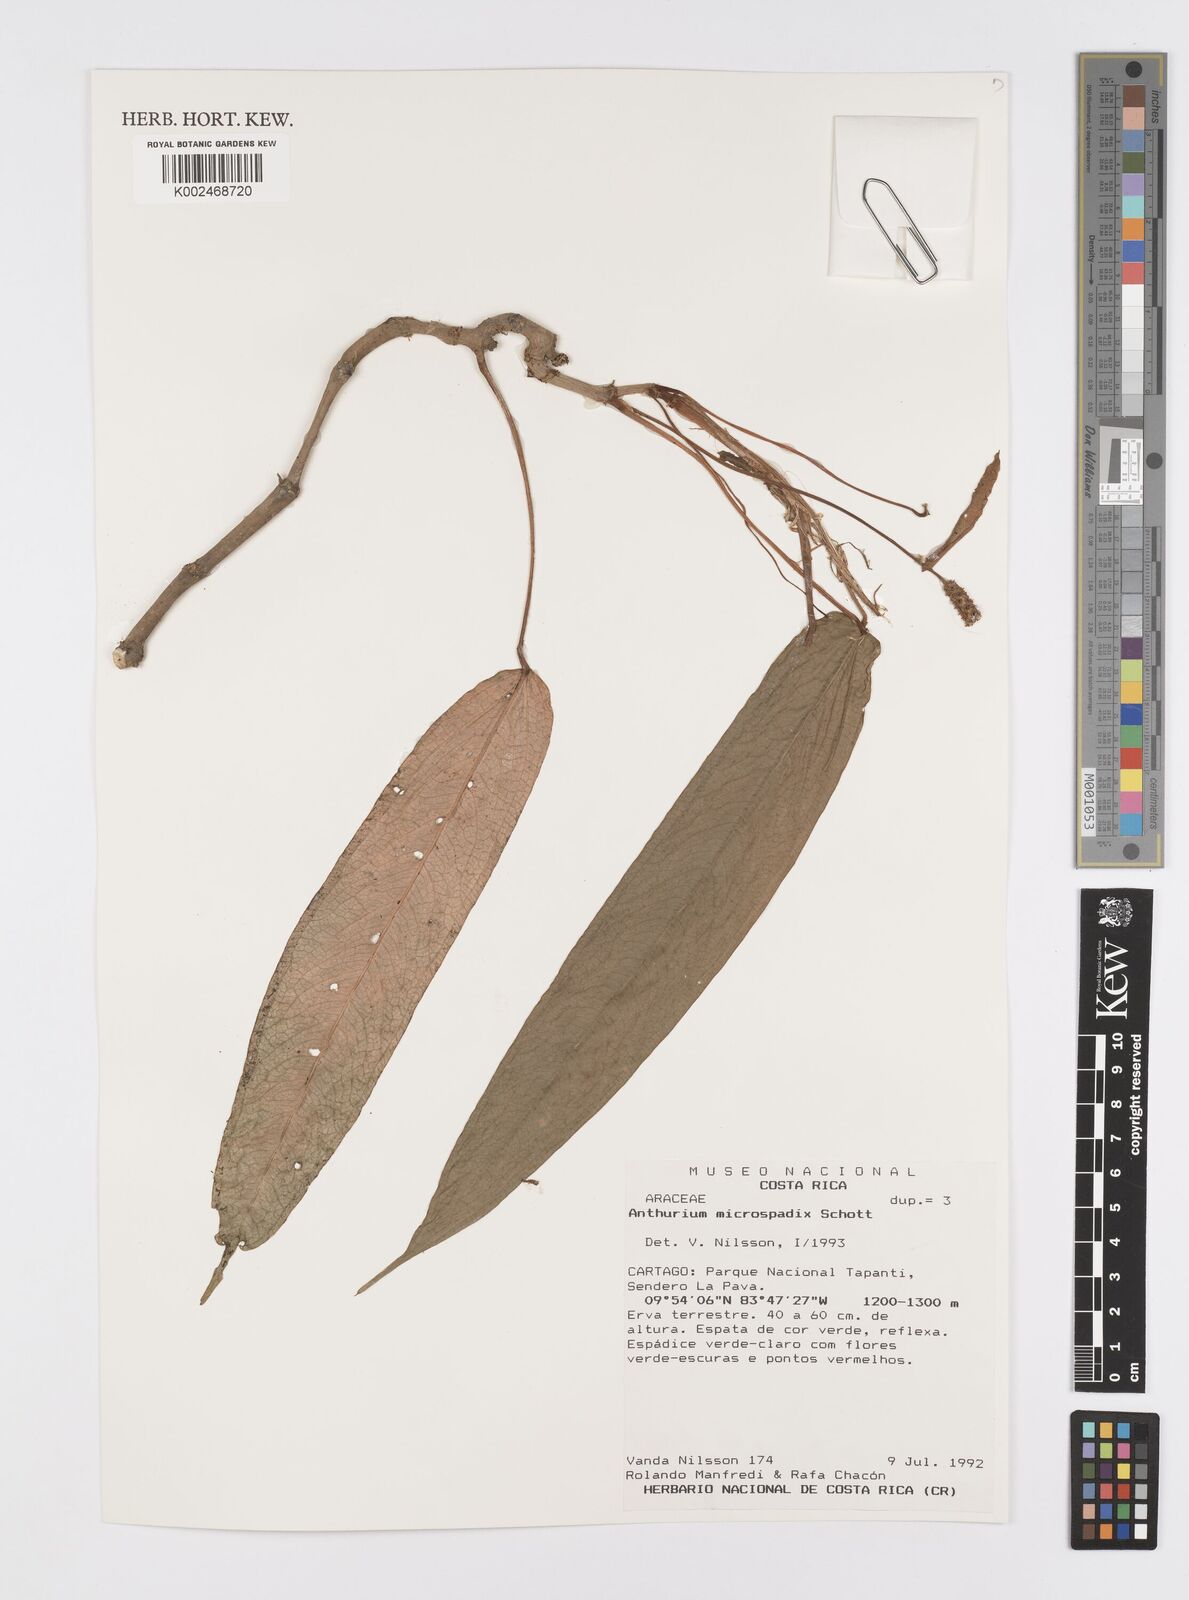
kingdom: Plantae
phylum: Tracheophyta
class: Liliopsida
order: Alismatales
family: Araceae
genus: Anthurium
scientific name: Anthurium microspadix
